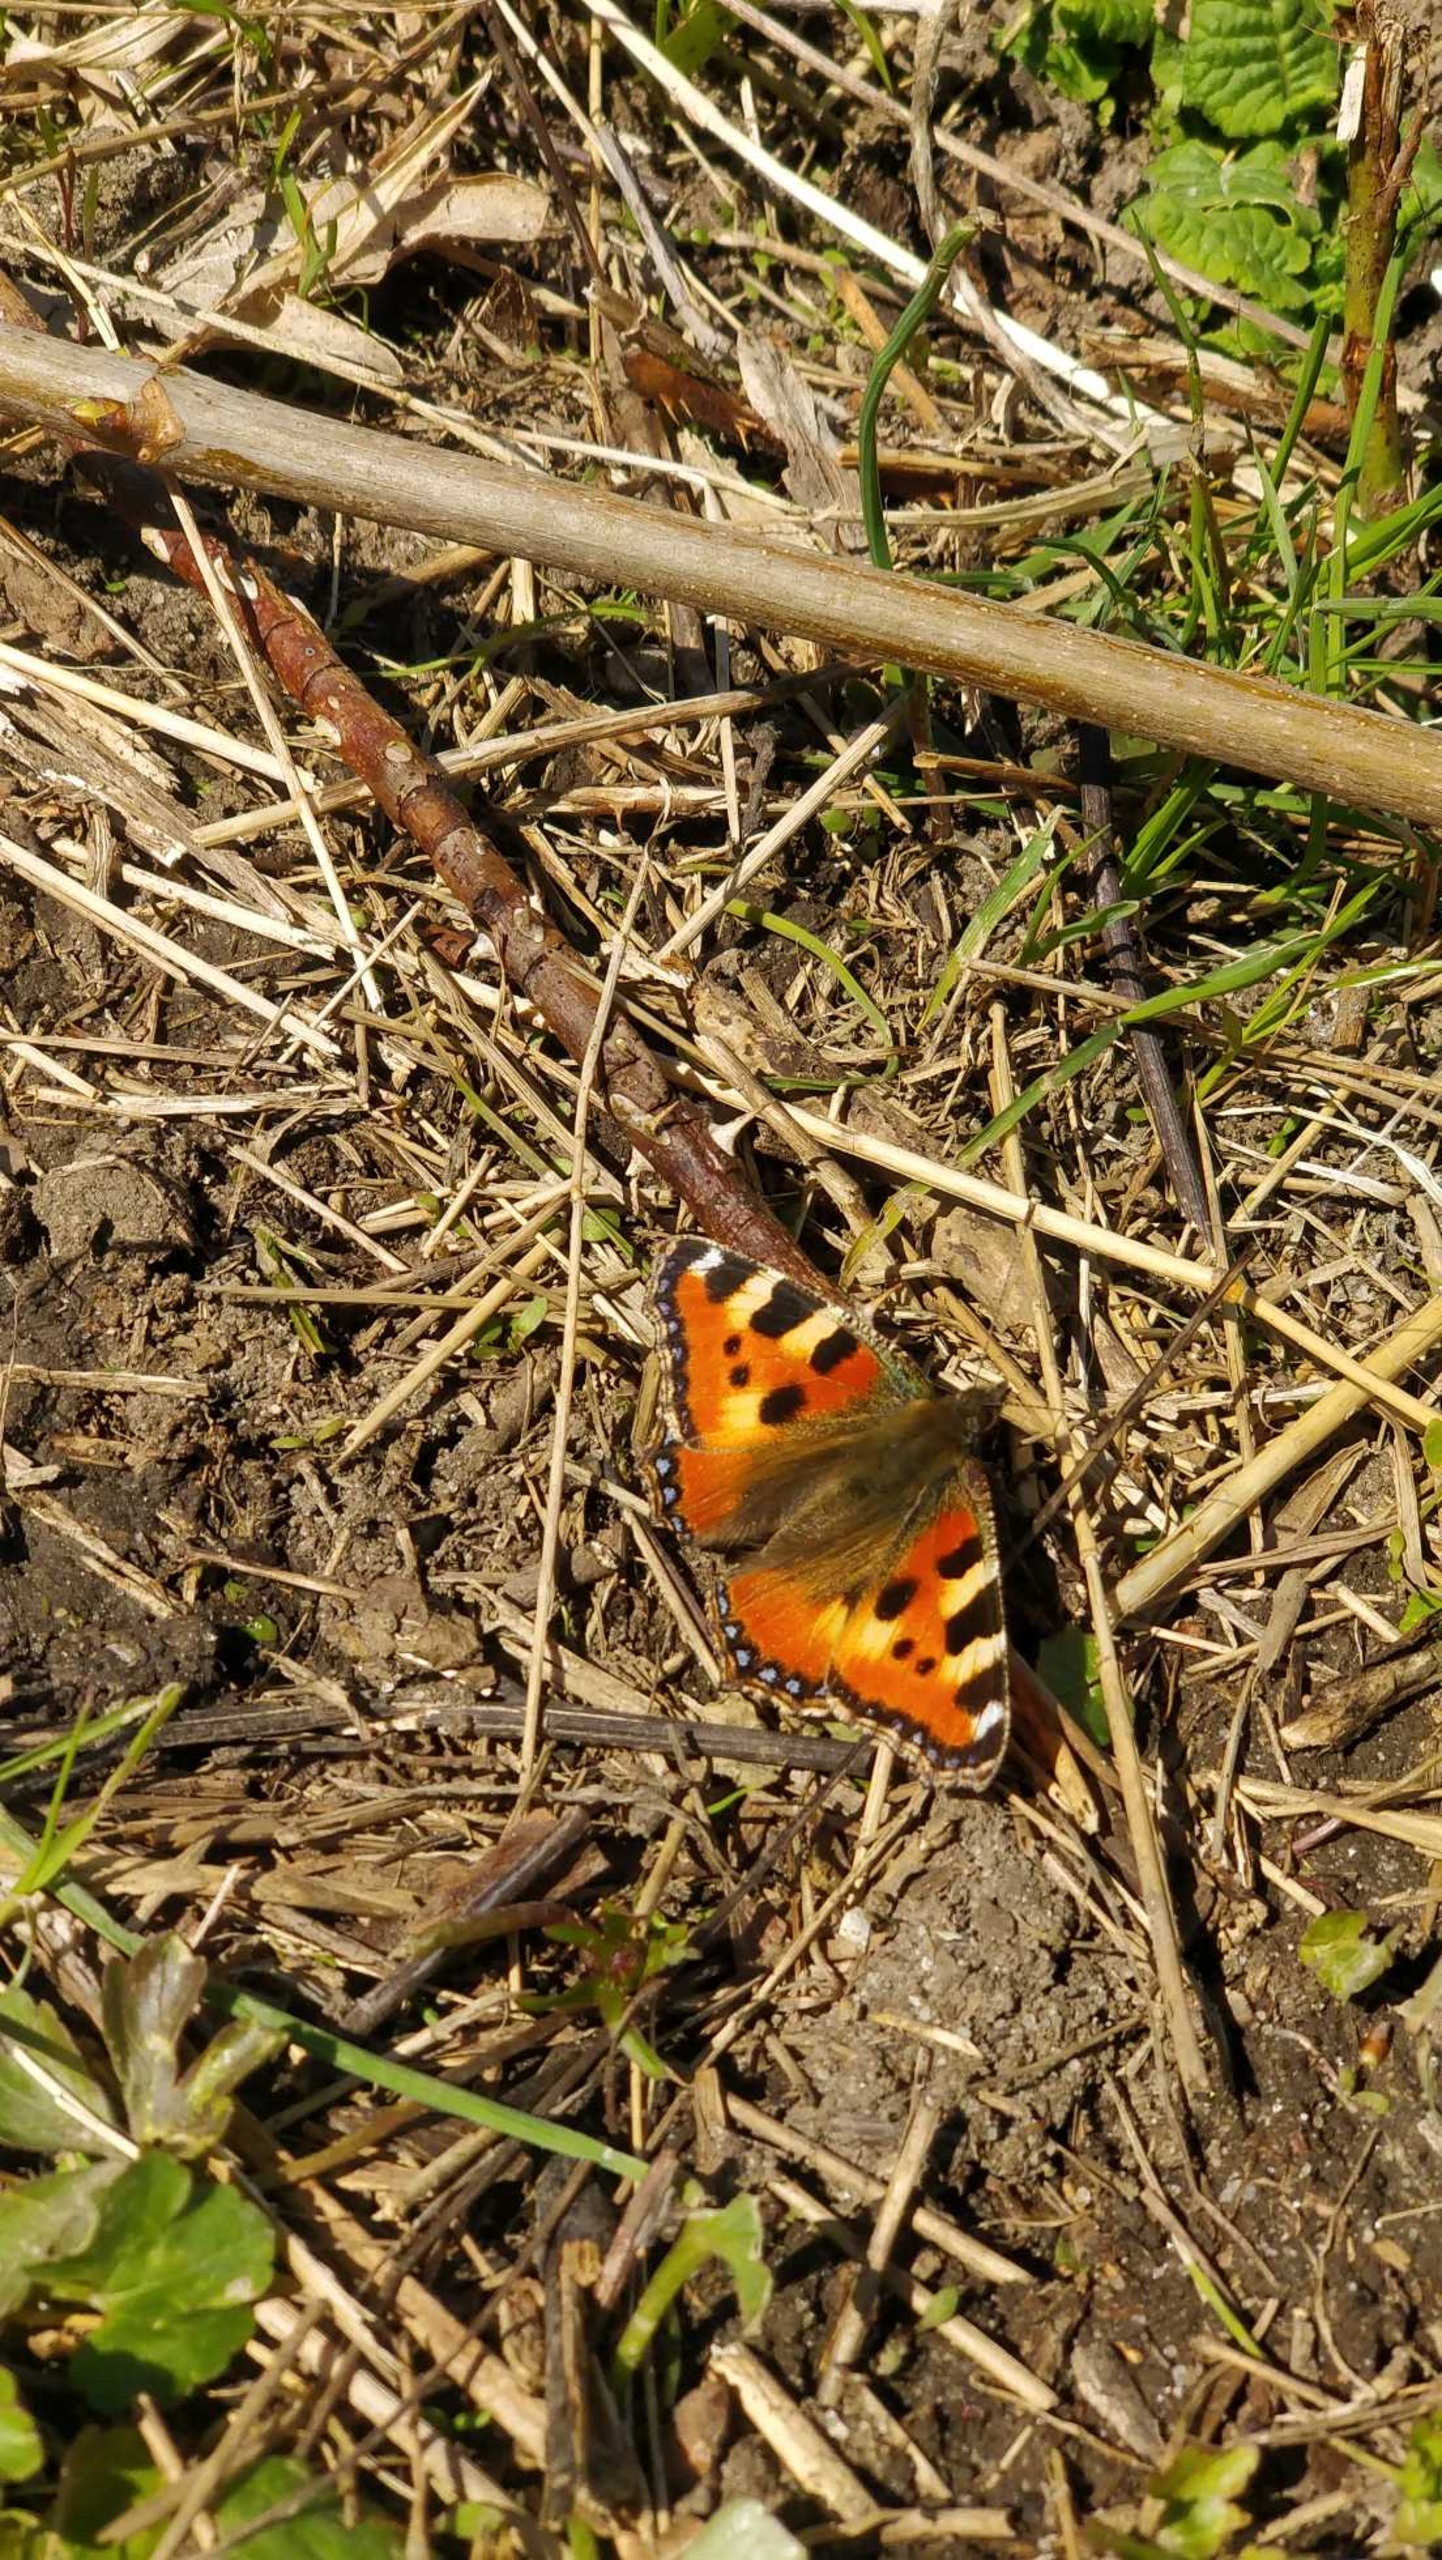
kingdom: Animalia
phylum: Arthropoda
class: Insecta
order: Lepidoptera
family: Nymphalidae
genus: Aglais
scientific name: Aglais urticae
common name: Nældens takvinge
